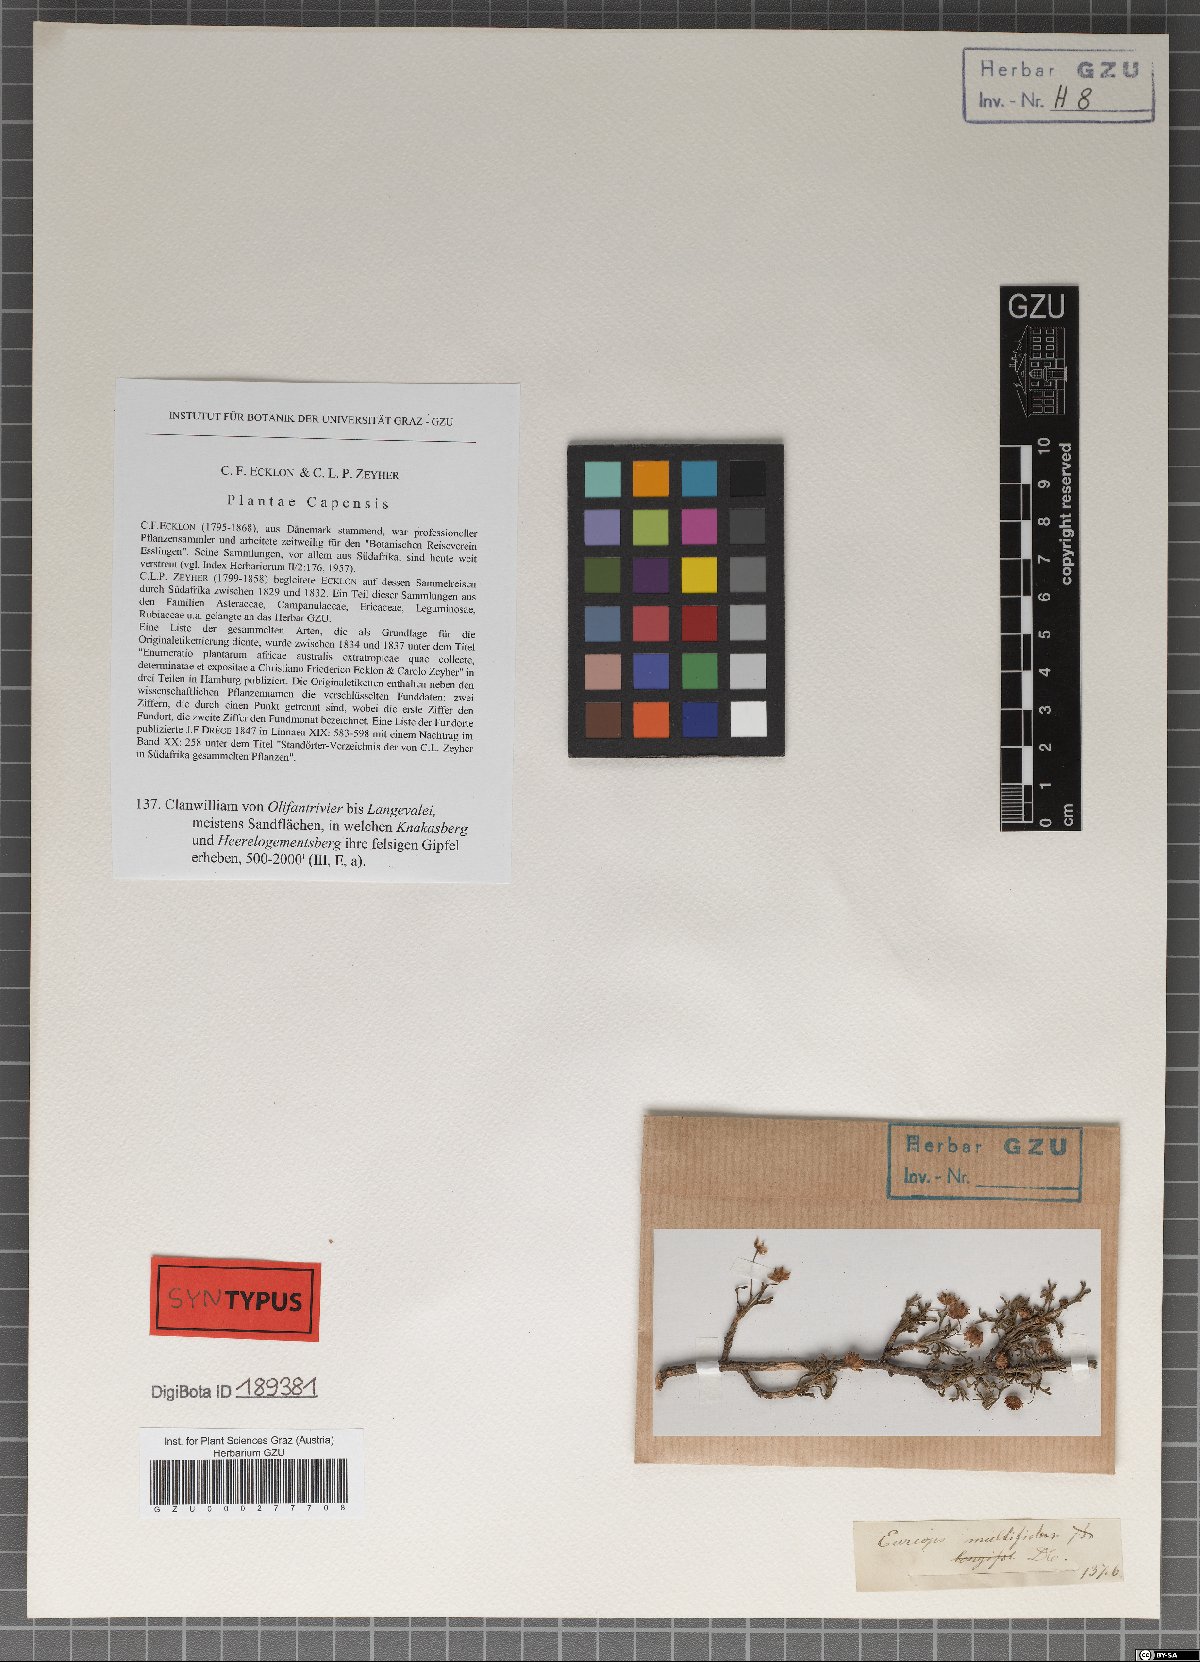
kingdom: Plantae
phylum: Tracheophyta
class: Magnoliopsida
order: Asterales
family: Asteraceae
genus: Euryops
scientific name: Euryops multifidus
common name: Hawk's eye
